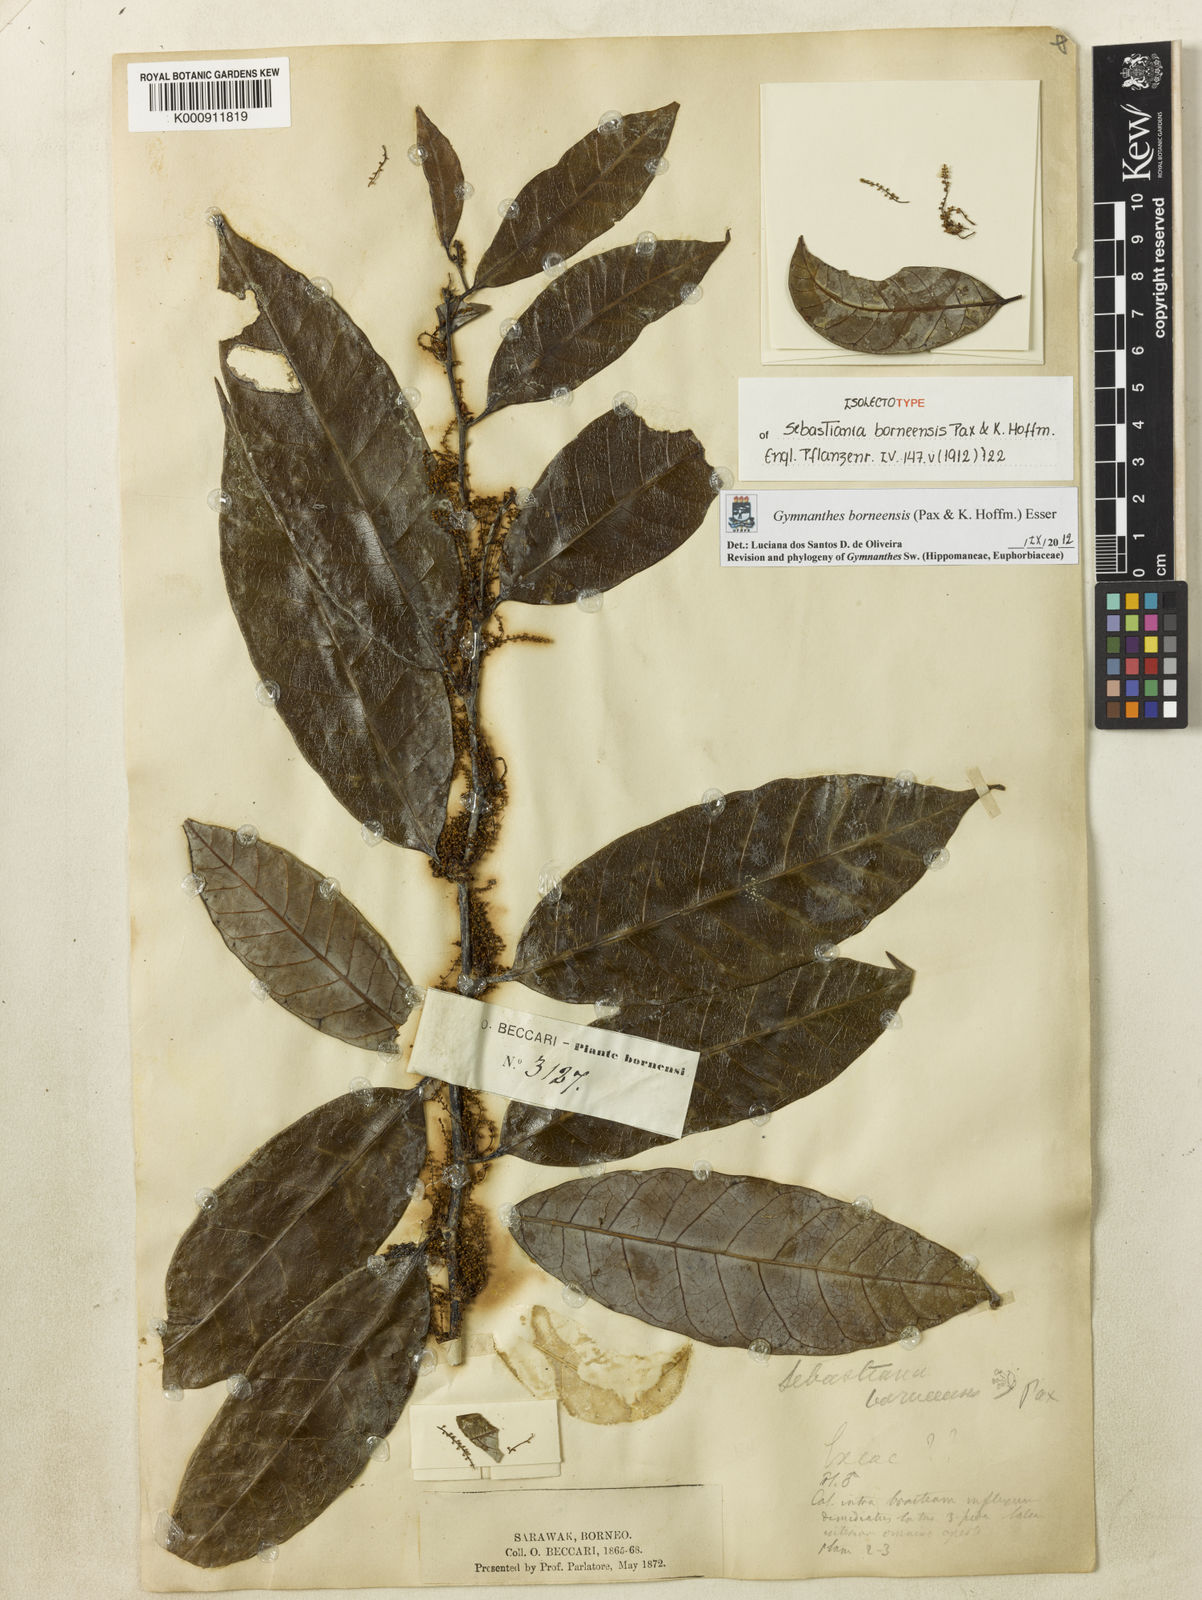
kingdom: Plantae
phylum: Tracheophyta
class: Magnoliopsida
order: Malpighiales
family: Euphorbiaceae
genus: Gymnanthes
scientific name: Gymnanthes borneensis
